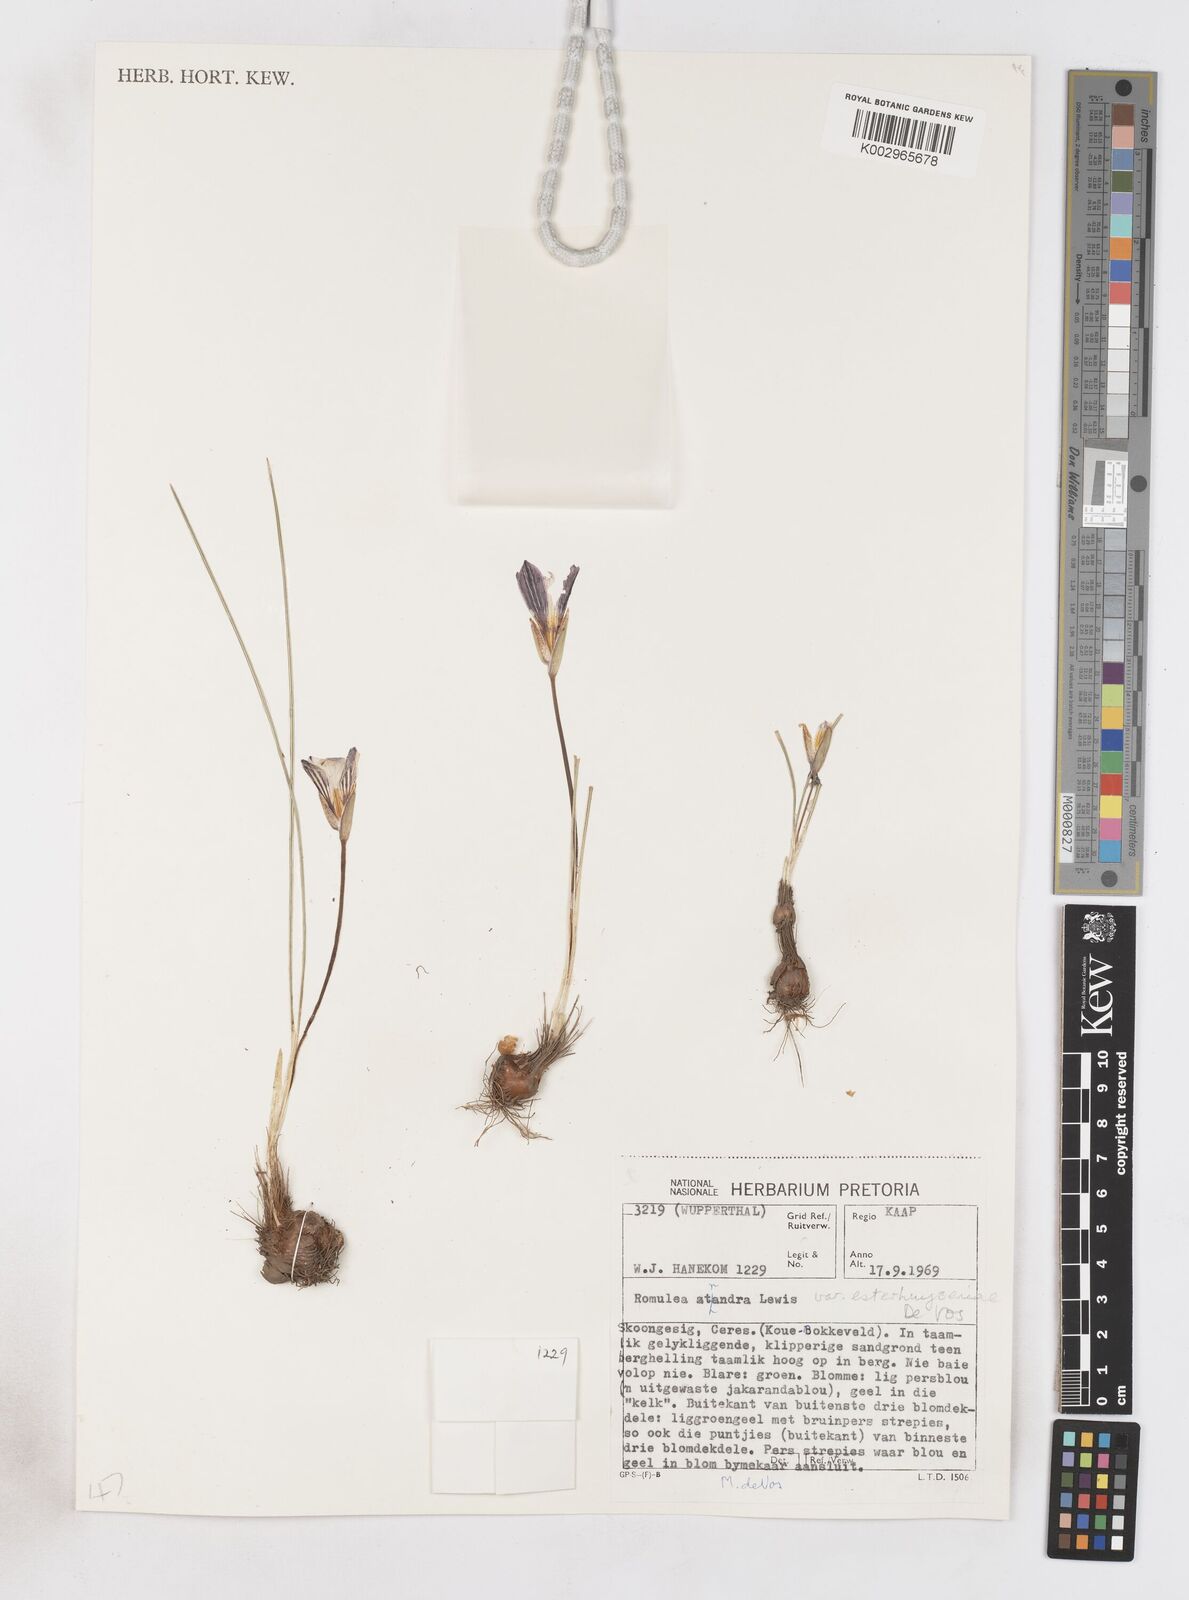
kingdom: Plantae
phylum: Tracheophyta
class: Liliopsida
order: Asparagales
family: Iridaceae
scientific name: Iridaceae
